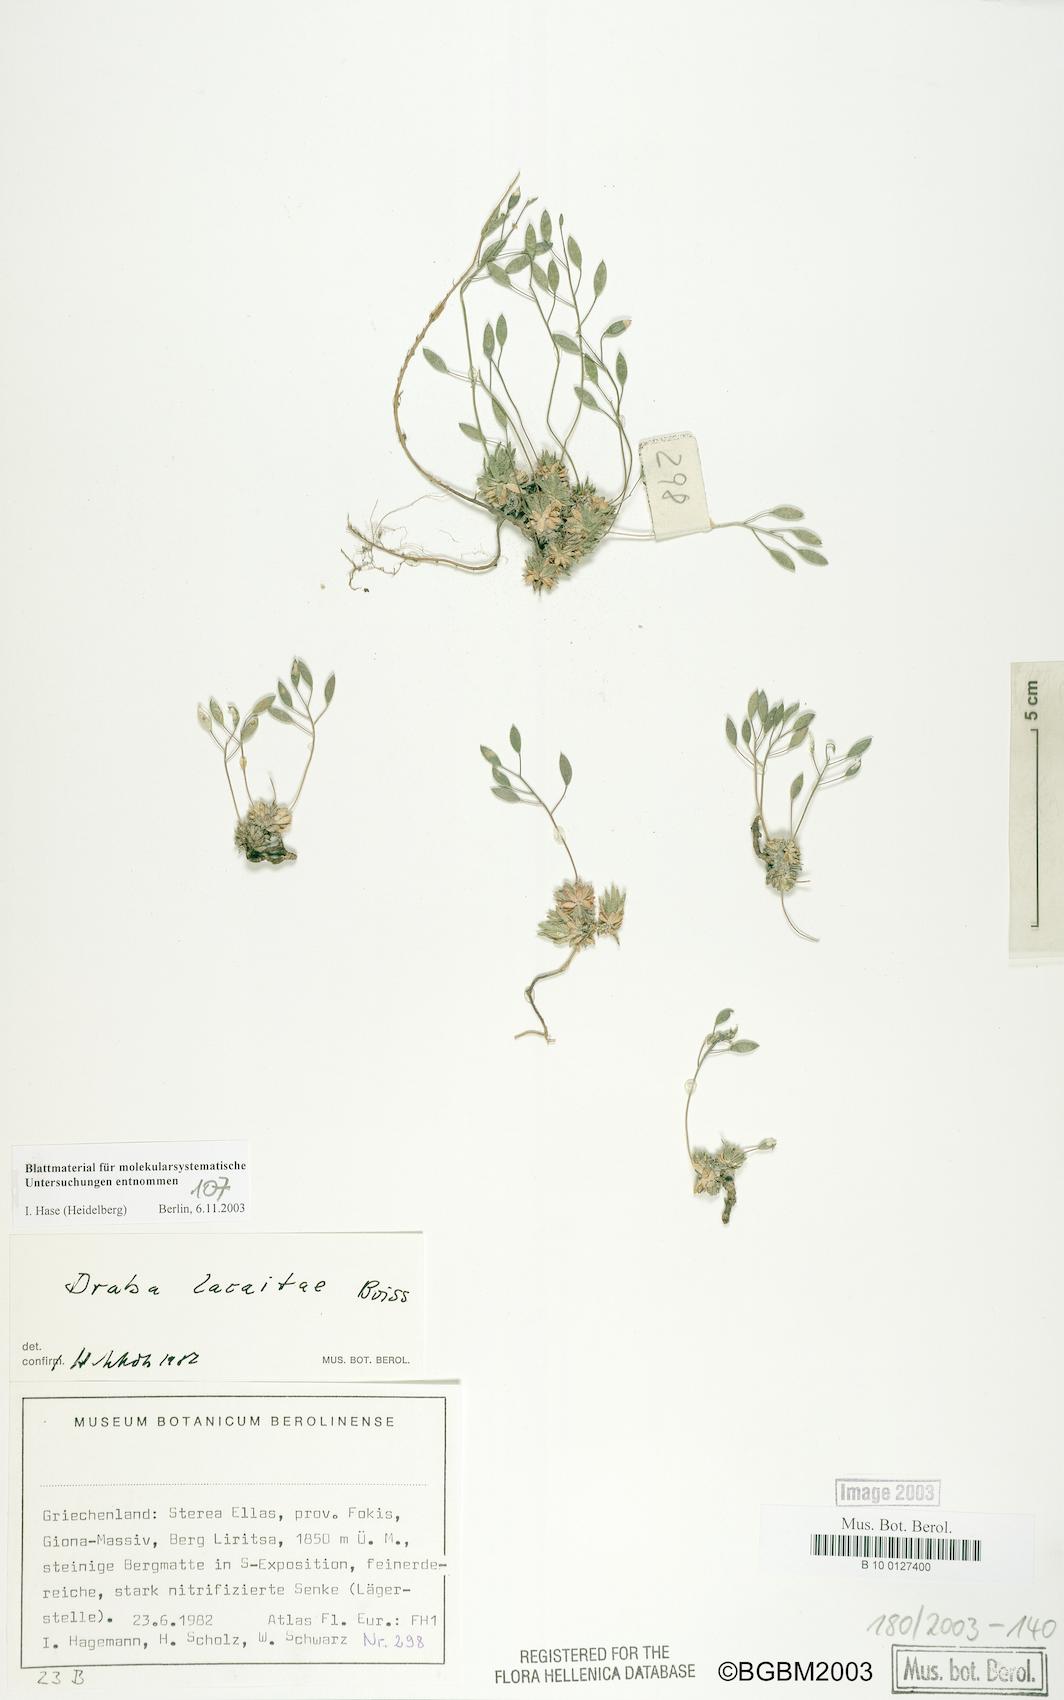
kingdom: Plantae
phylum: Tracheophyta
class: Magnoliopsida
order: Brassicales
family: Brassicaceae
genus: Draba
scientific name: Draba lacaitae
